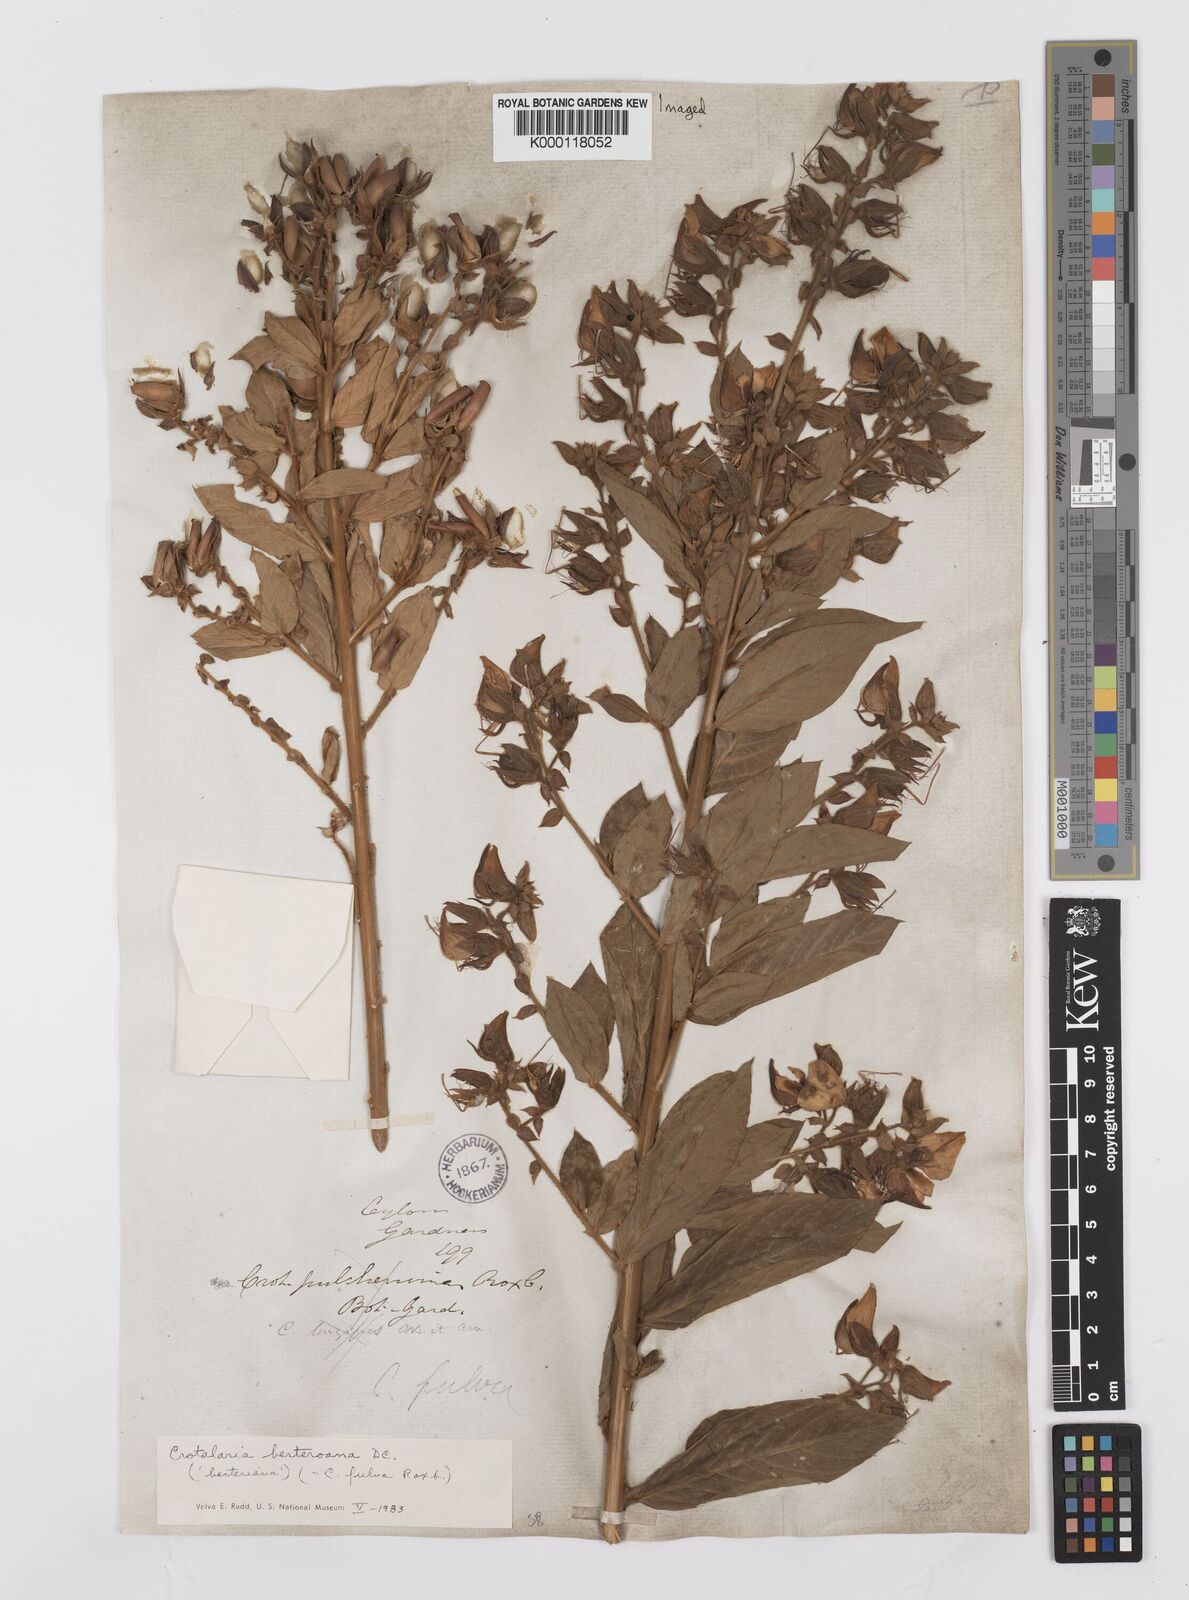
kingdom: Plantae
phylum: Tracheophyta
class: Magnoliopsida
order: Fabales
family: Fabaceae
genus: Crotalaria
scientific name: Crotalaria
